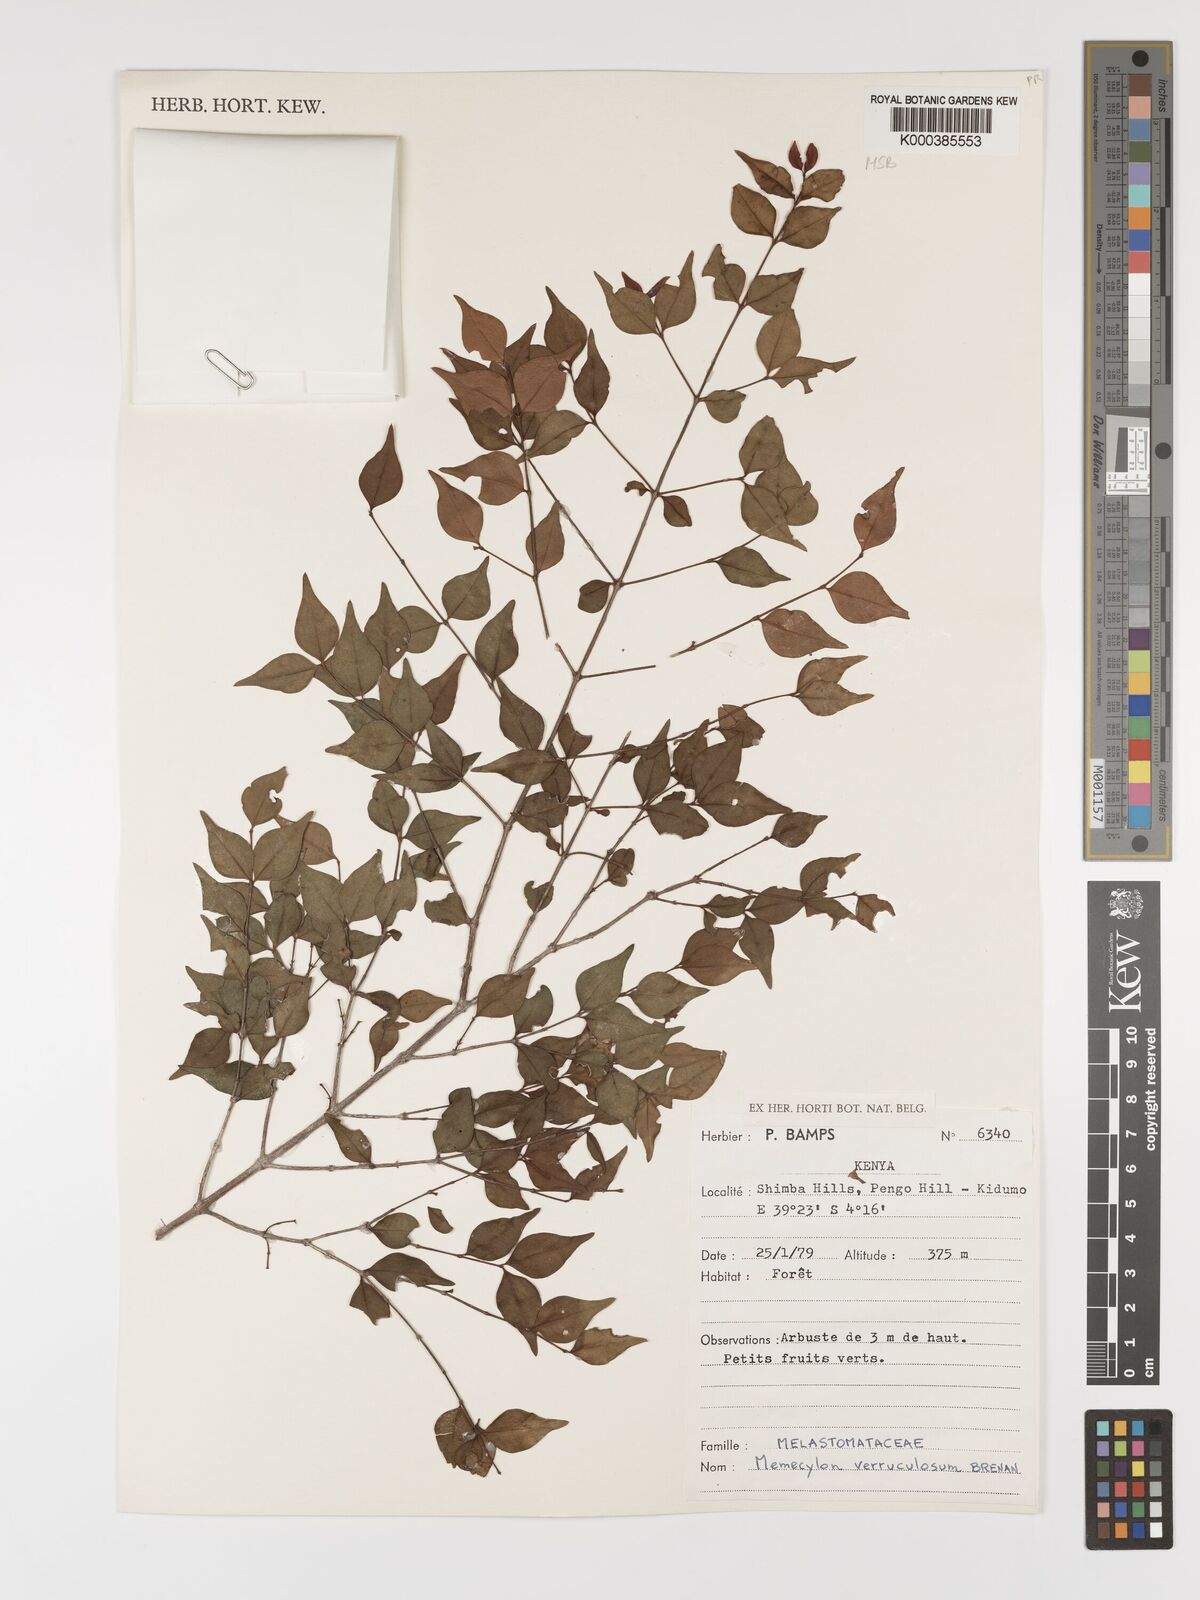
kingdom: Plantae
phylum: Tracheophyta
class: Magnoliopsida
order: Myrtales
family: Melastomataceae
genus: Memecylon
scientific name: Memecylon verruculosum
